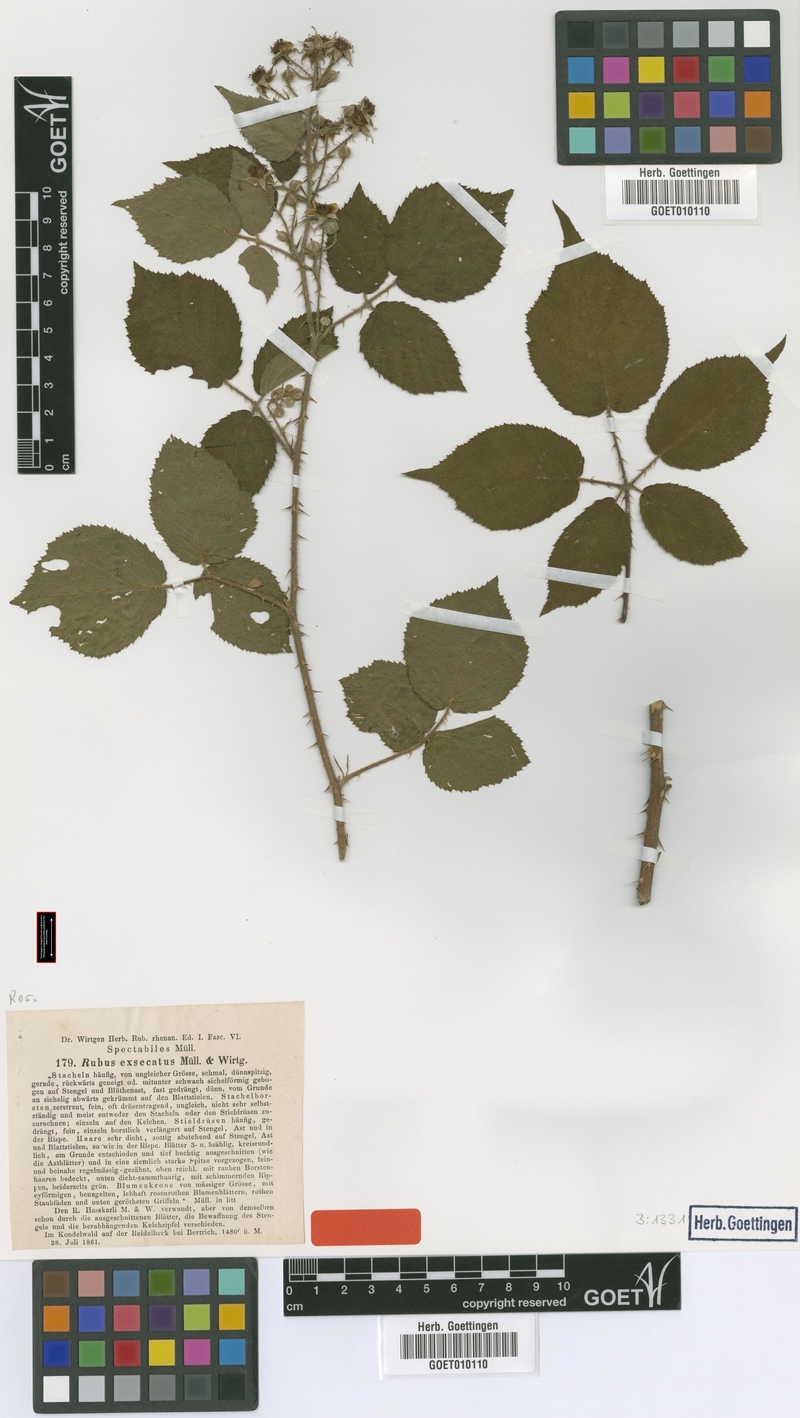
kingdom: Plantae
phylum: Tracheophyta
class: Magnoliopsida
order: Rosales
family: Rosaceae
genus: Rubus
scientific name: Rubus pannosus
